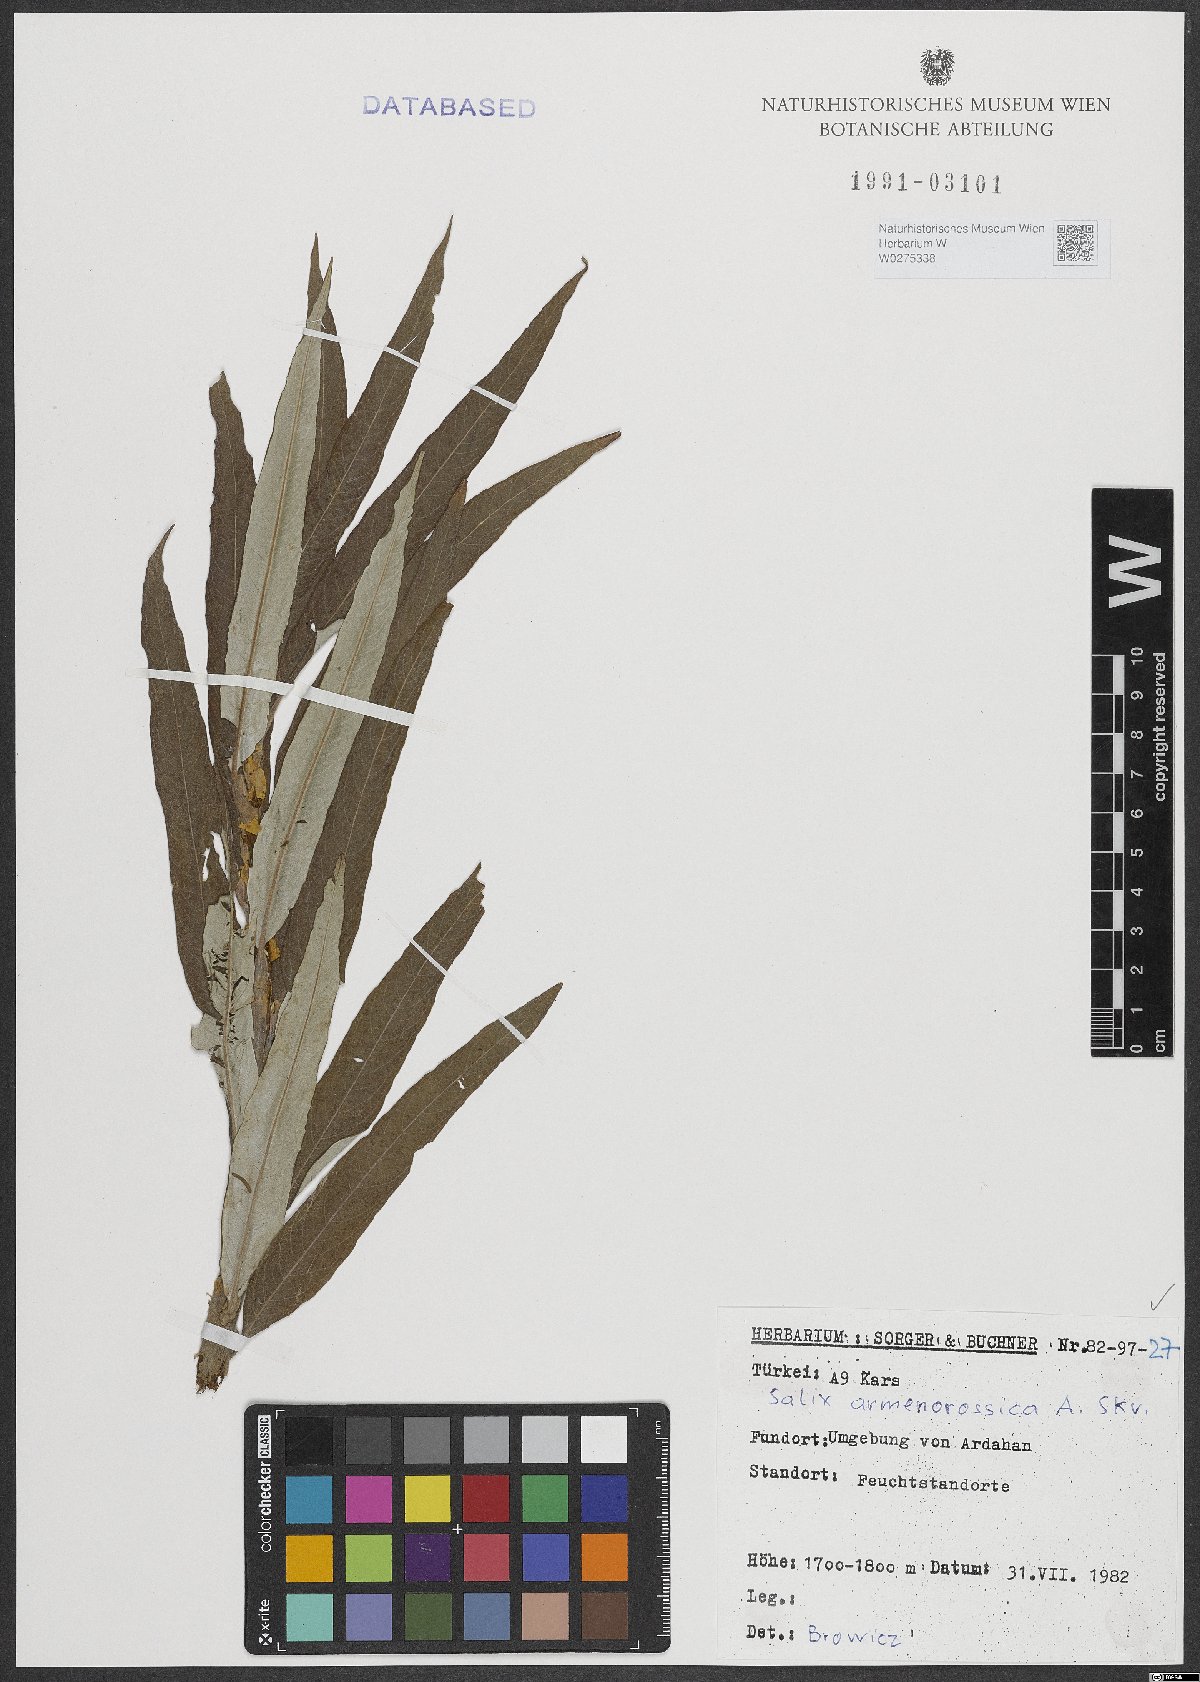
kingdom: Plantae
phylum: Tracheophyta
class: Magnoliopsida
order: Malpighiales
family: Salicaceae
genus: Salix
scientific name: Salix viminalis
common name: Osier
